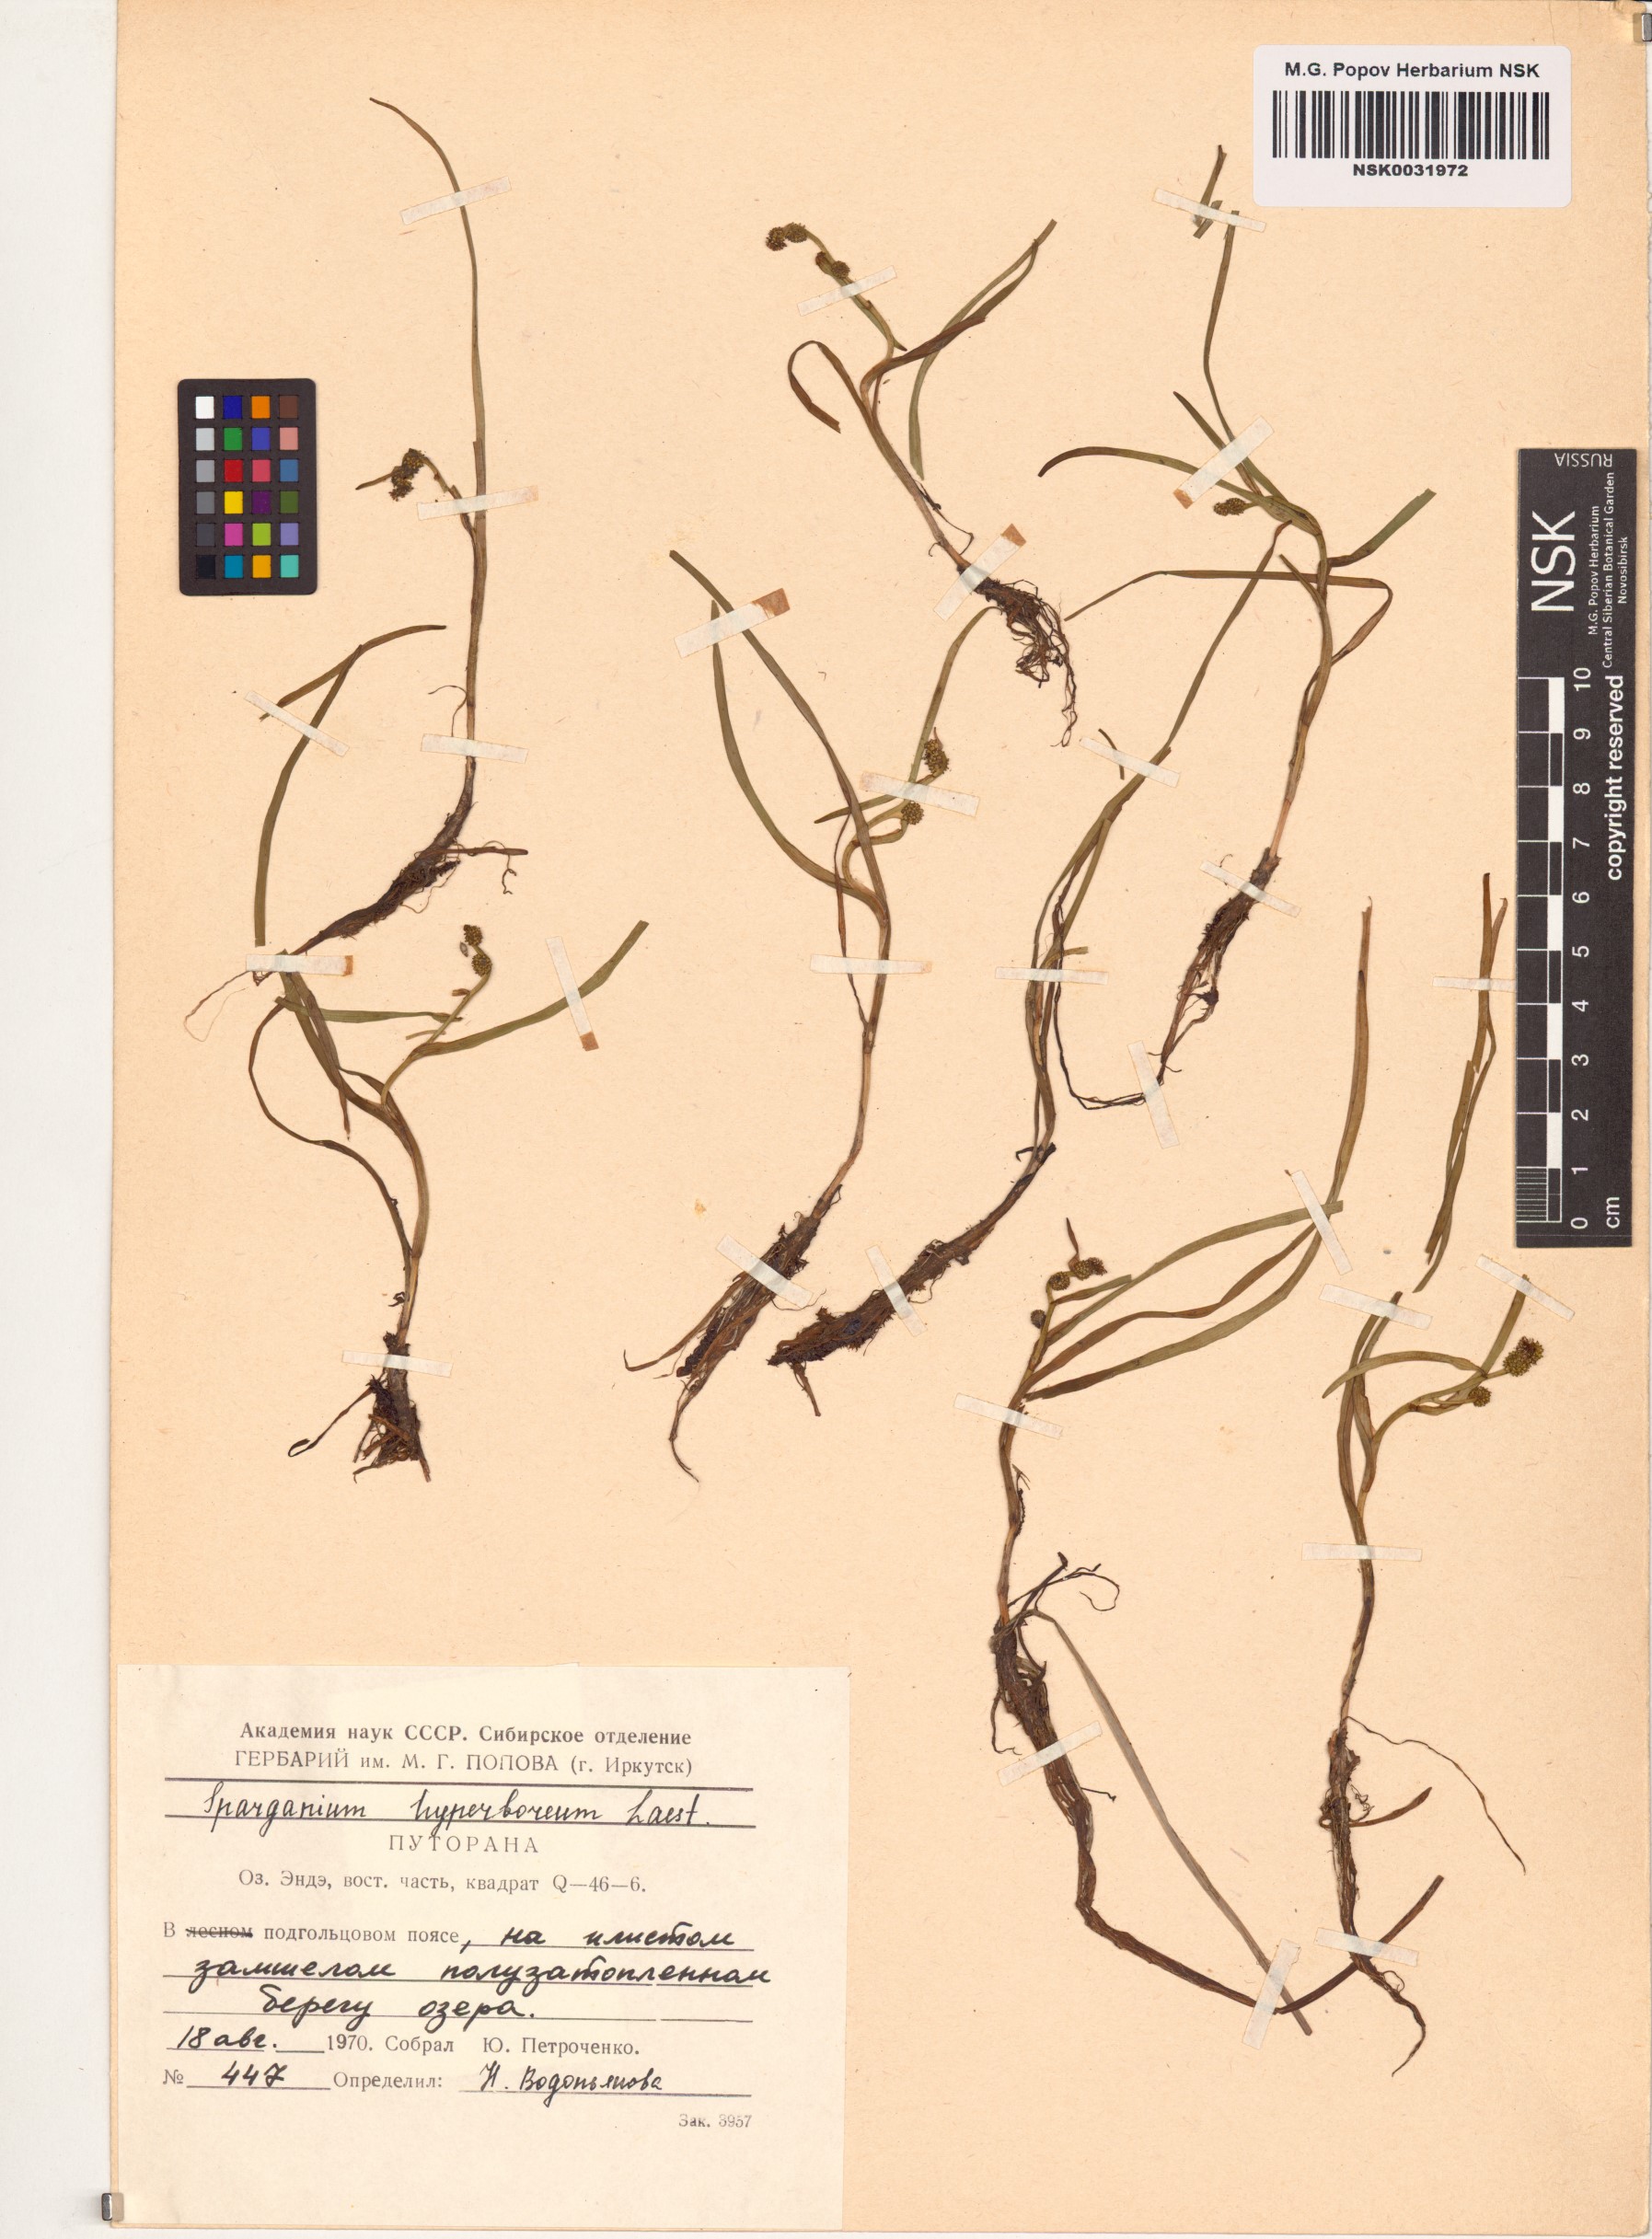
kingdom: Plantae
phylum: Tracheophyta
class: Liliopsida
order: Poales
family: Typhaceae
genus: Sparganium
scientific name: Sparganium hyperboreum
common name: Arctic burreed
